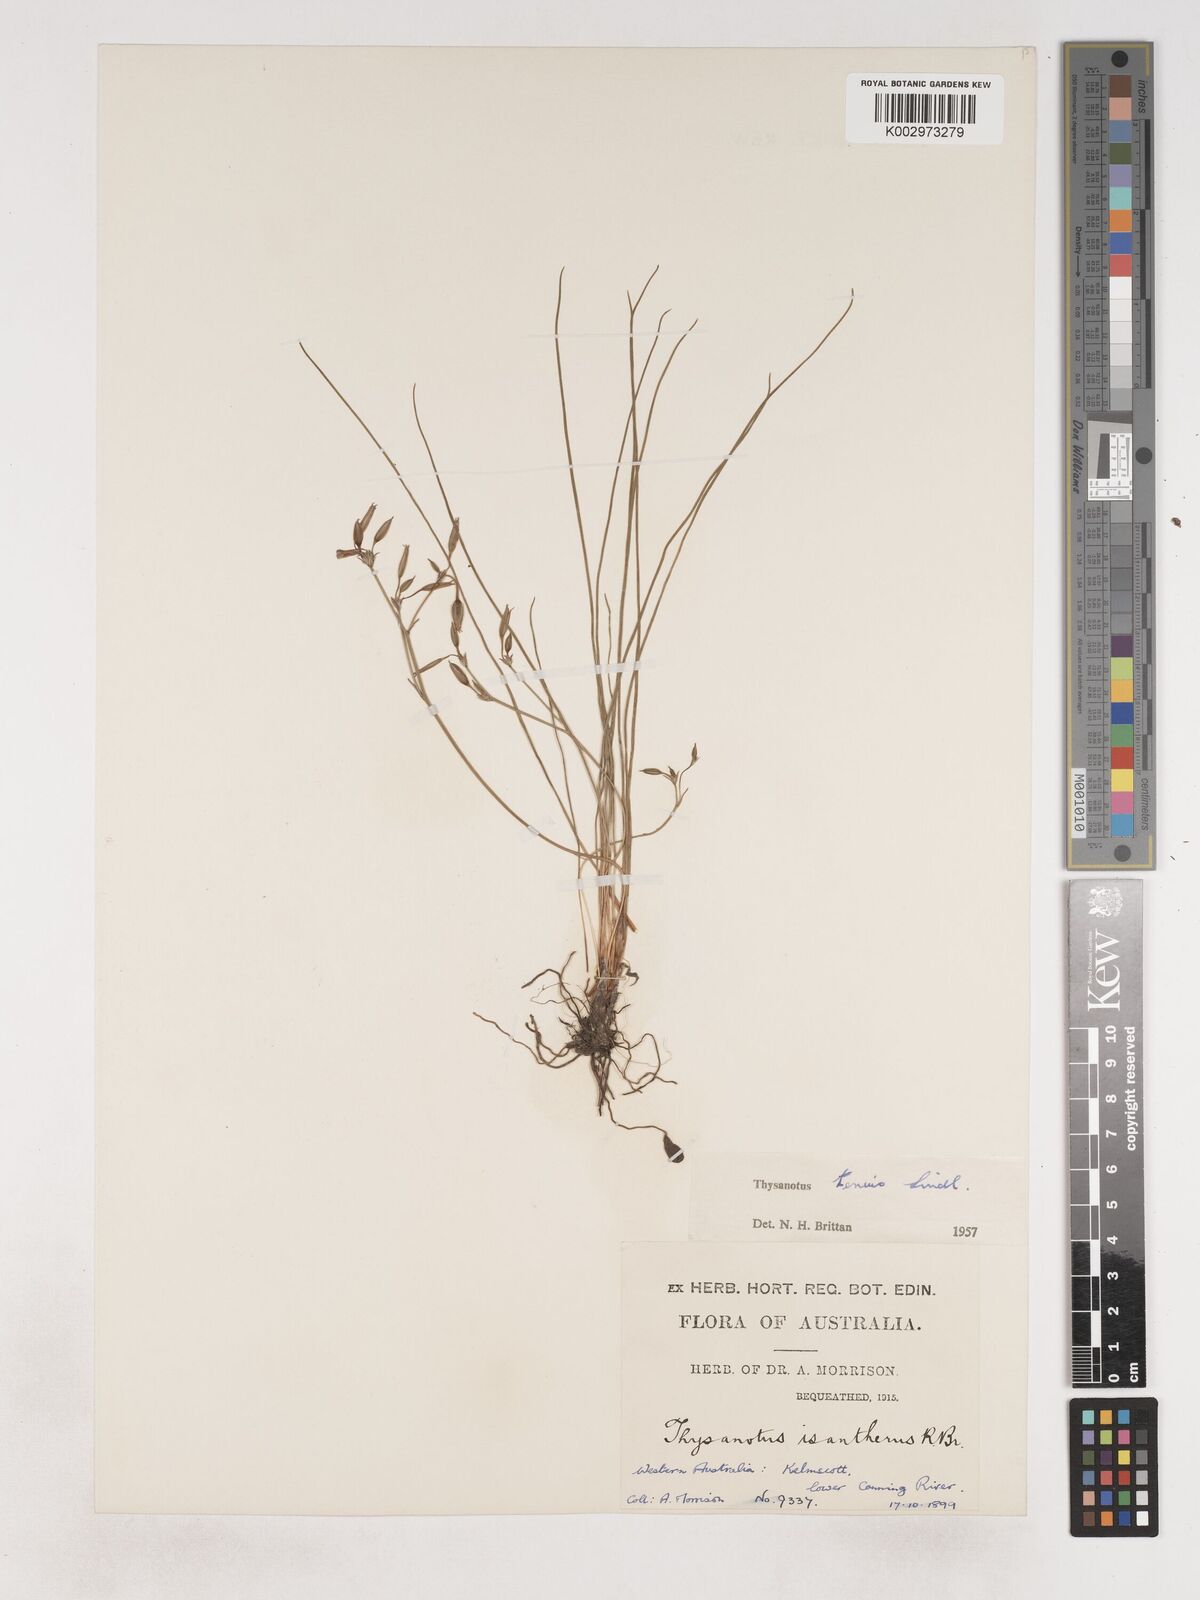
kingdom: Plantae
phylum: Tracheophyta
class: Liliopsida
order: Asparagales
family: Asparagaceae
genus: Thysanotus
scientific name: Thysanotus tenuis
